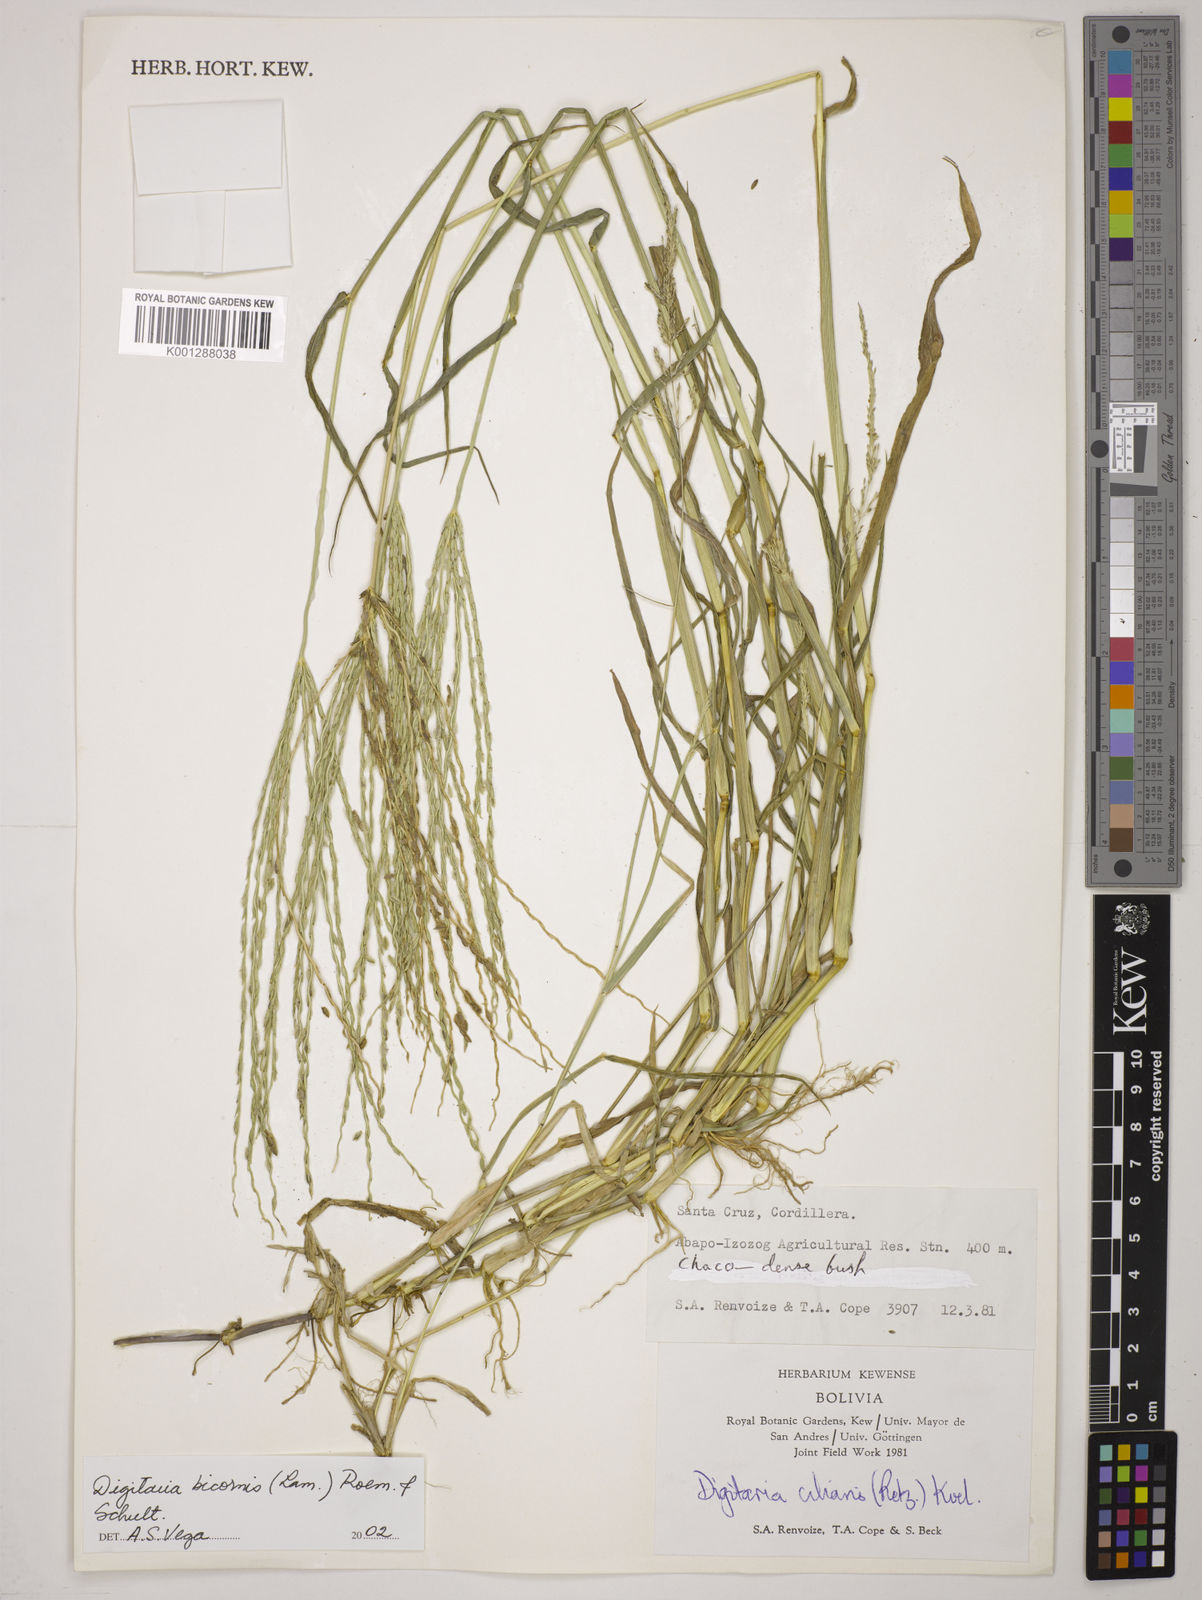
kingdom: Plantae
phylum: Tracheophyta
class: Liliopsida
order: Poales
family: Poaceae
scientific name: Poaceae
